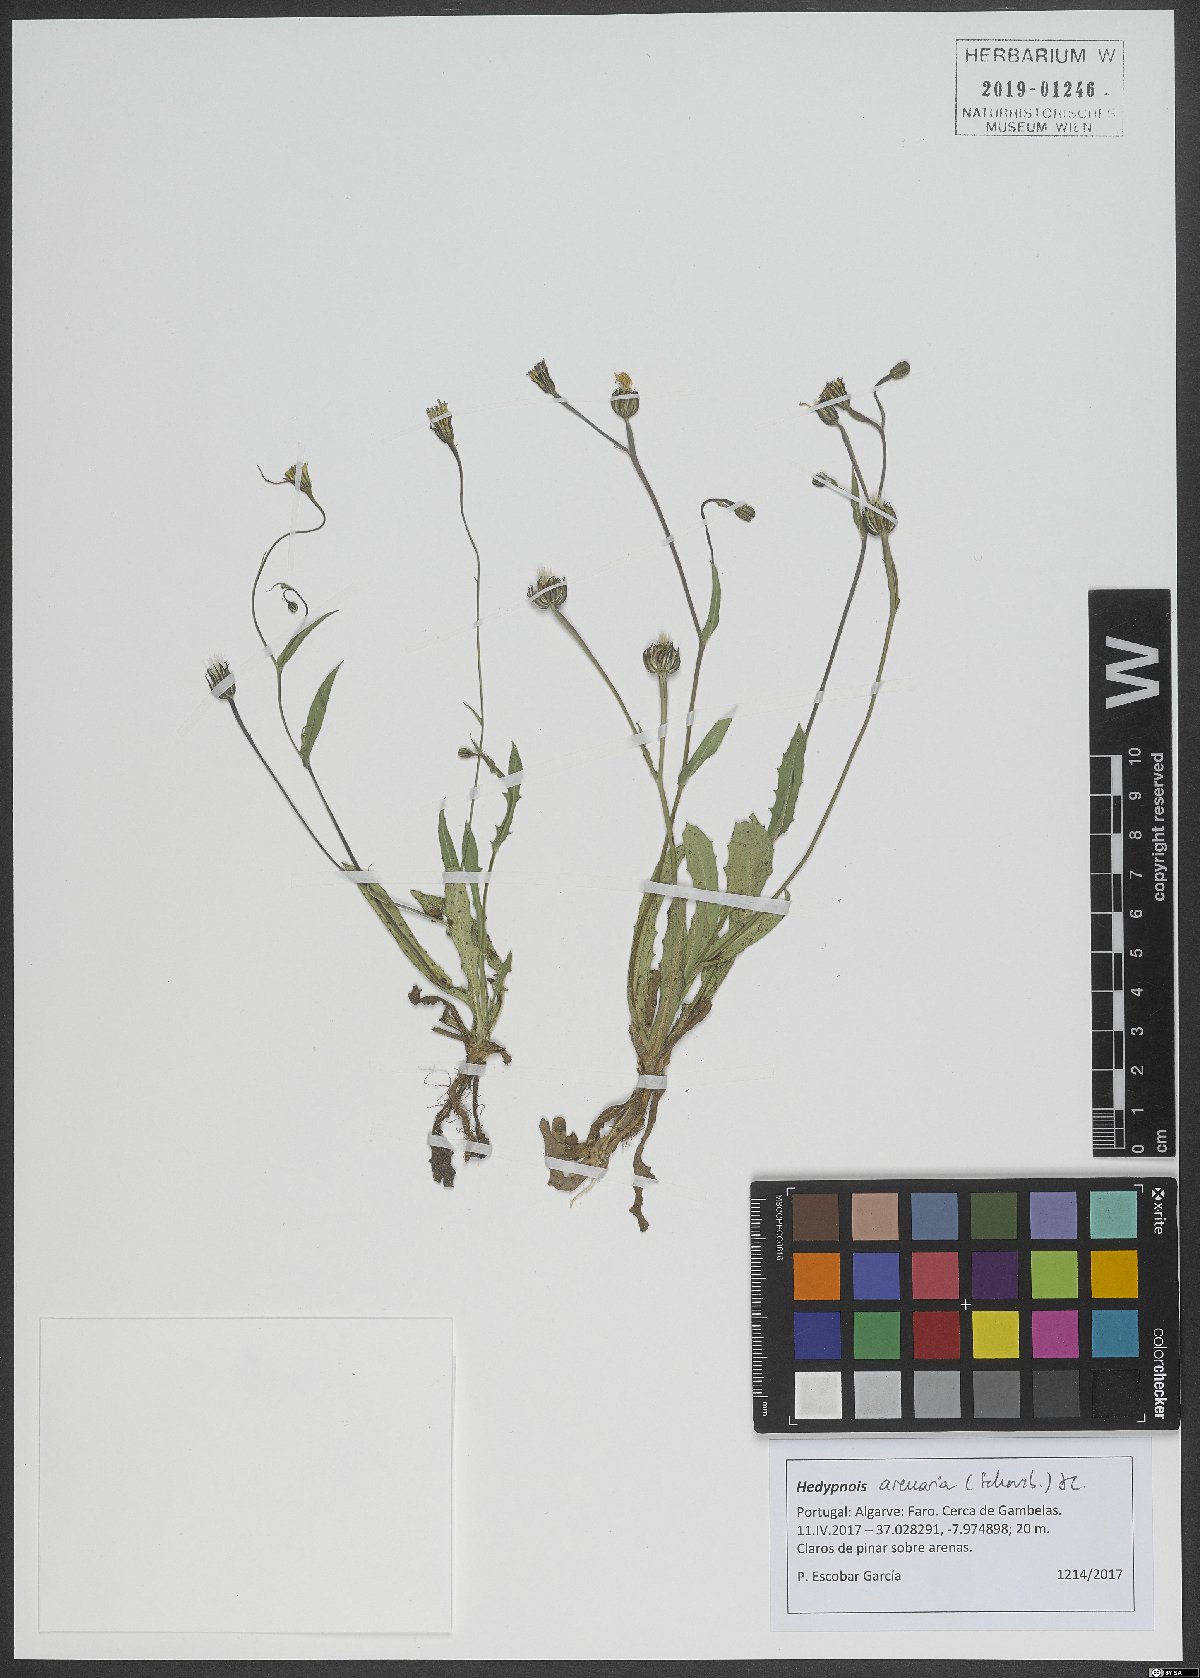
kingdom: Plantae
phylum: Tracheophyta
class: Magnoliopsida
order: Asterales
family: Asteraceae
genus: Hedypnois
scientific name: Hedypnois arenaria
